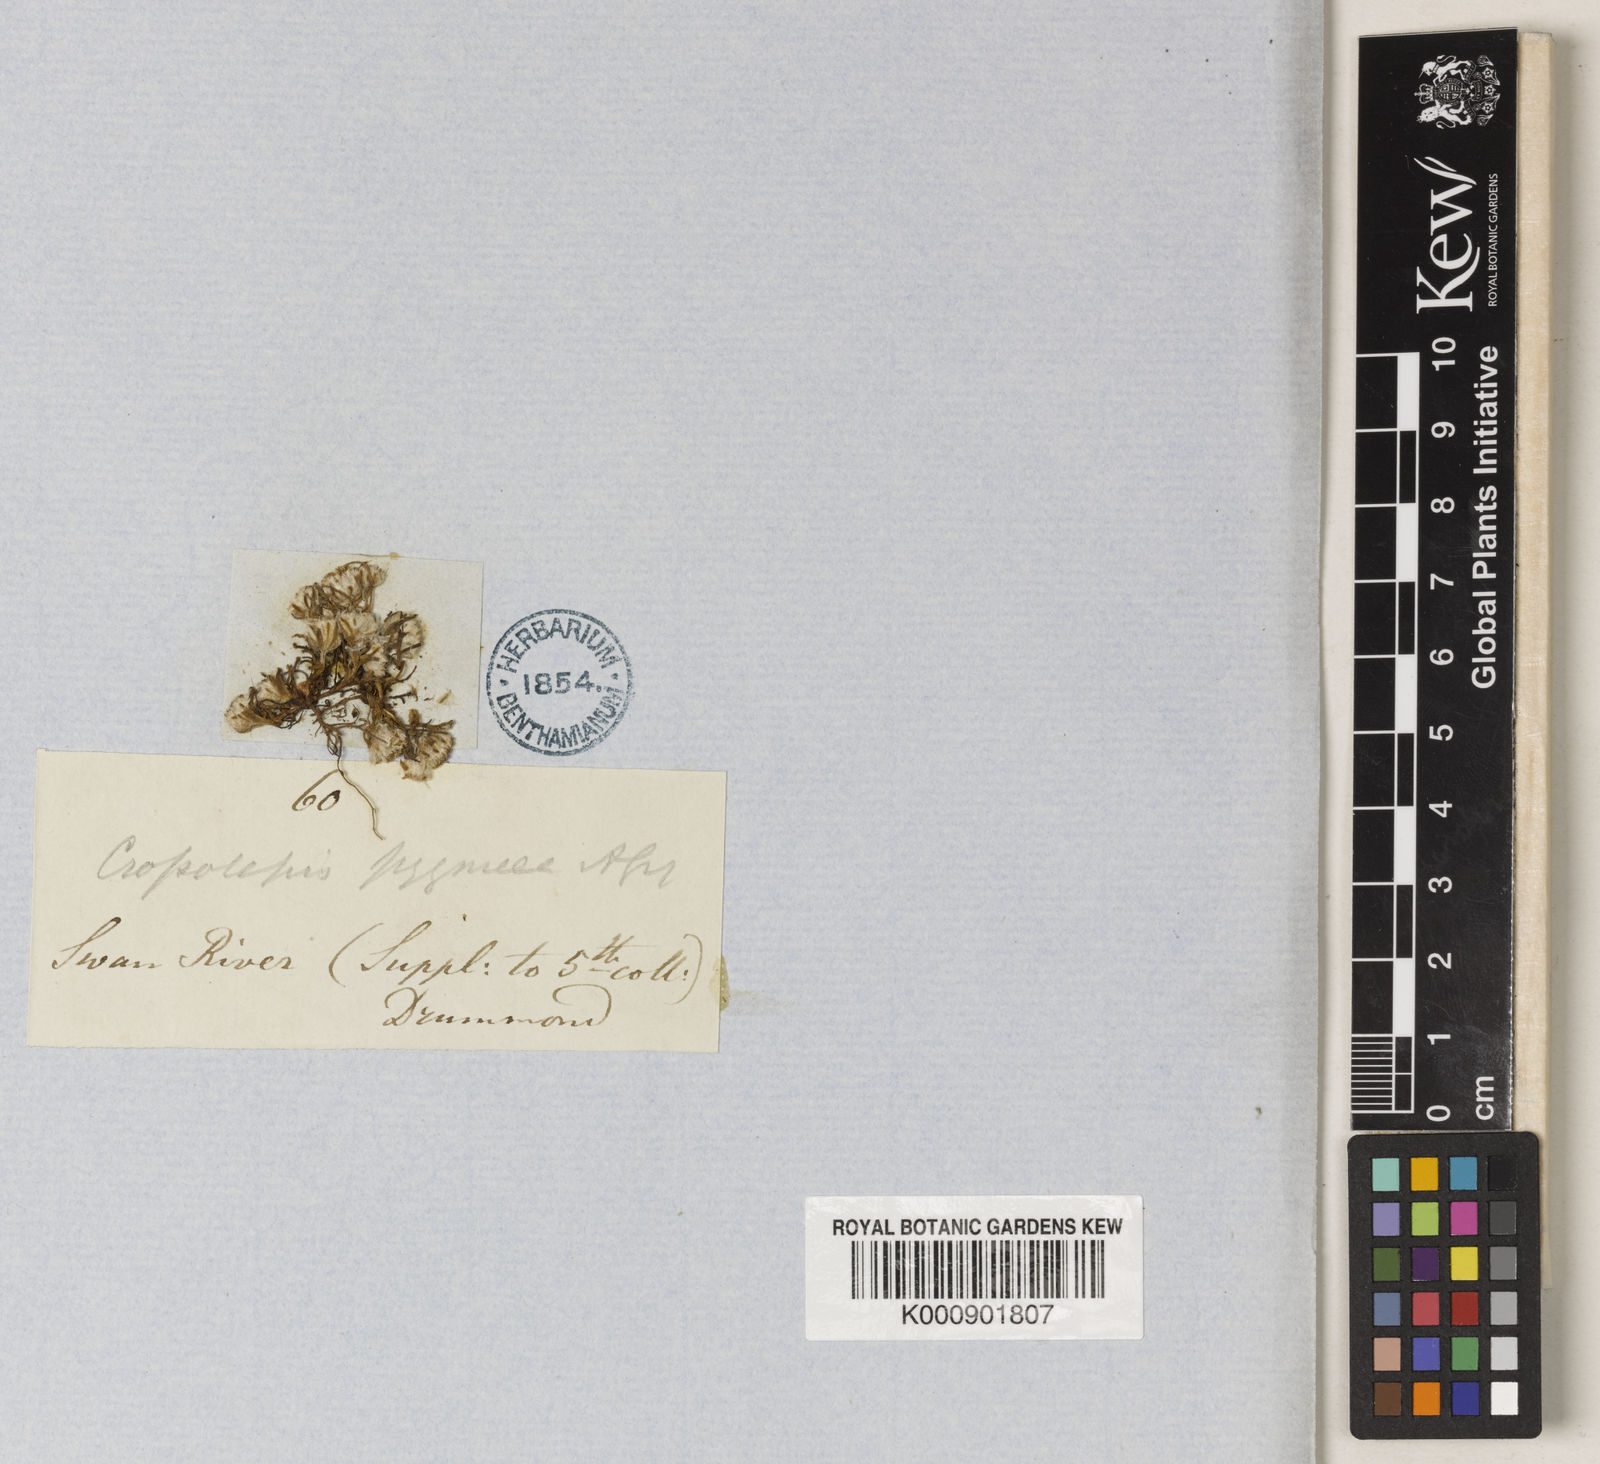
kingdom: Plantae
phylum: Tracheophyta
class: Magnoliopsida
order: Asterales
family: Asteraceae
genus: Myriocephalus
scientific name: Myriocephalus pygmaea
